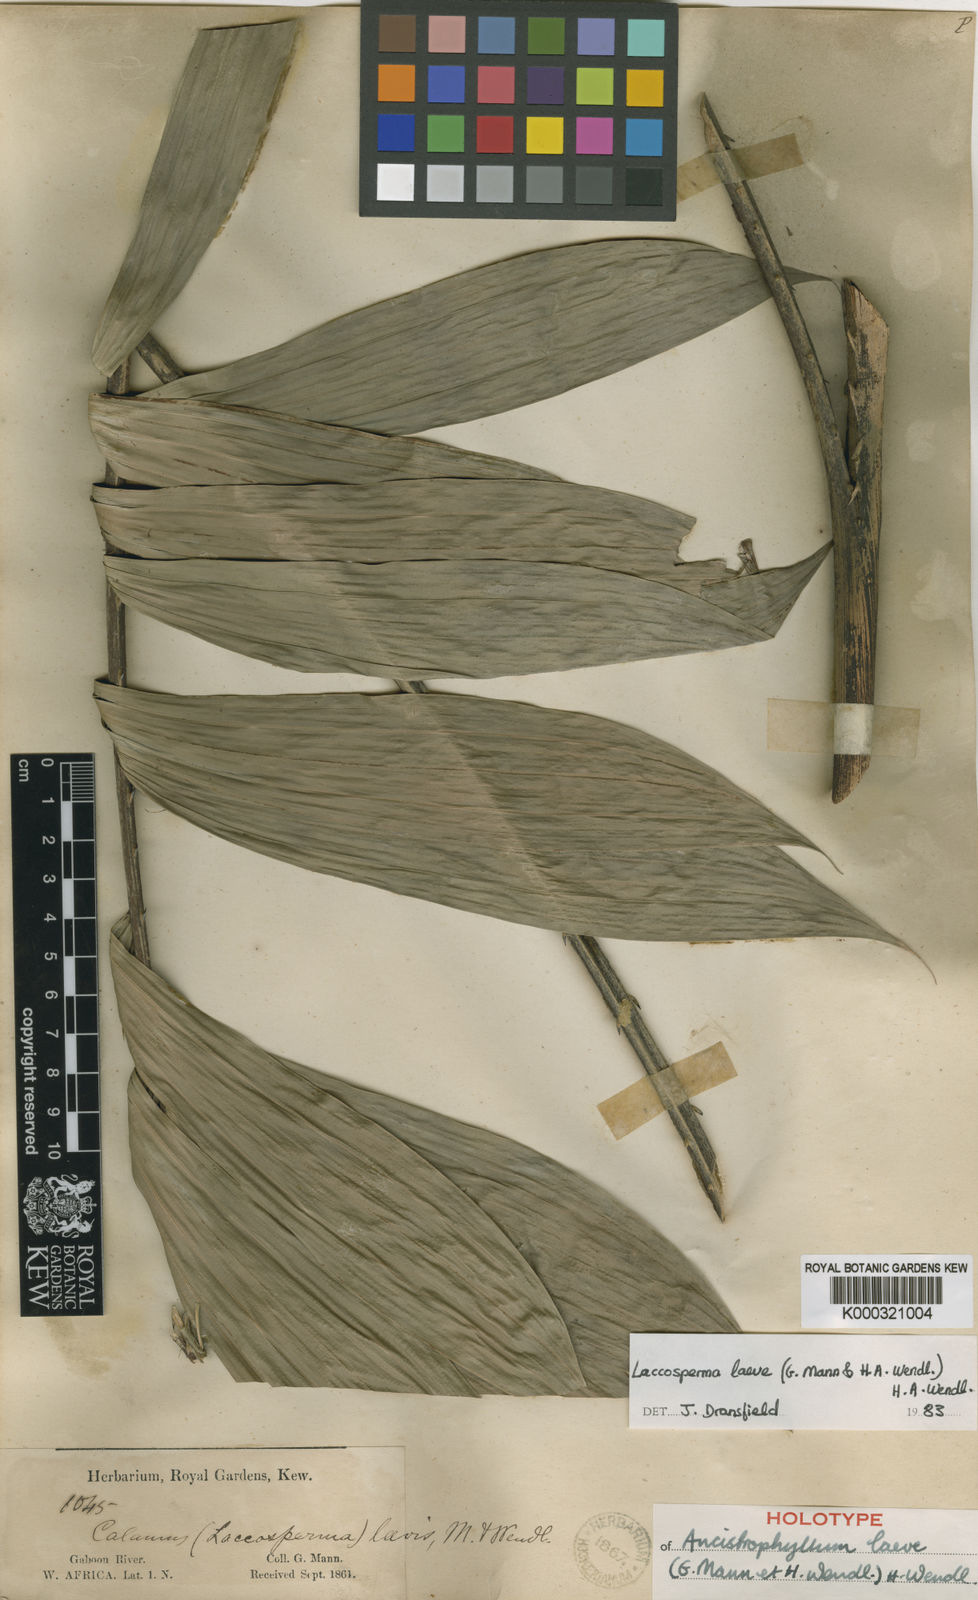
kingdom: Plantae
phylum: Tracheophyta
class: Liliopsida
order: Arecales
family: Arecaceae
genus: Laccosperma
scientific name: Laccosperma laeve
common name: Rattan
